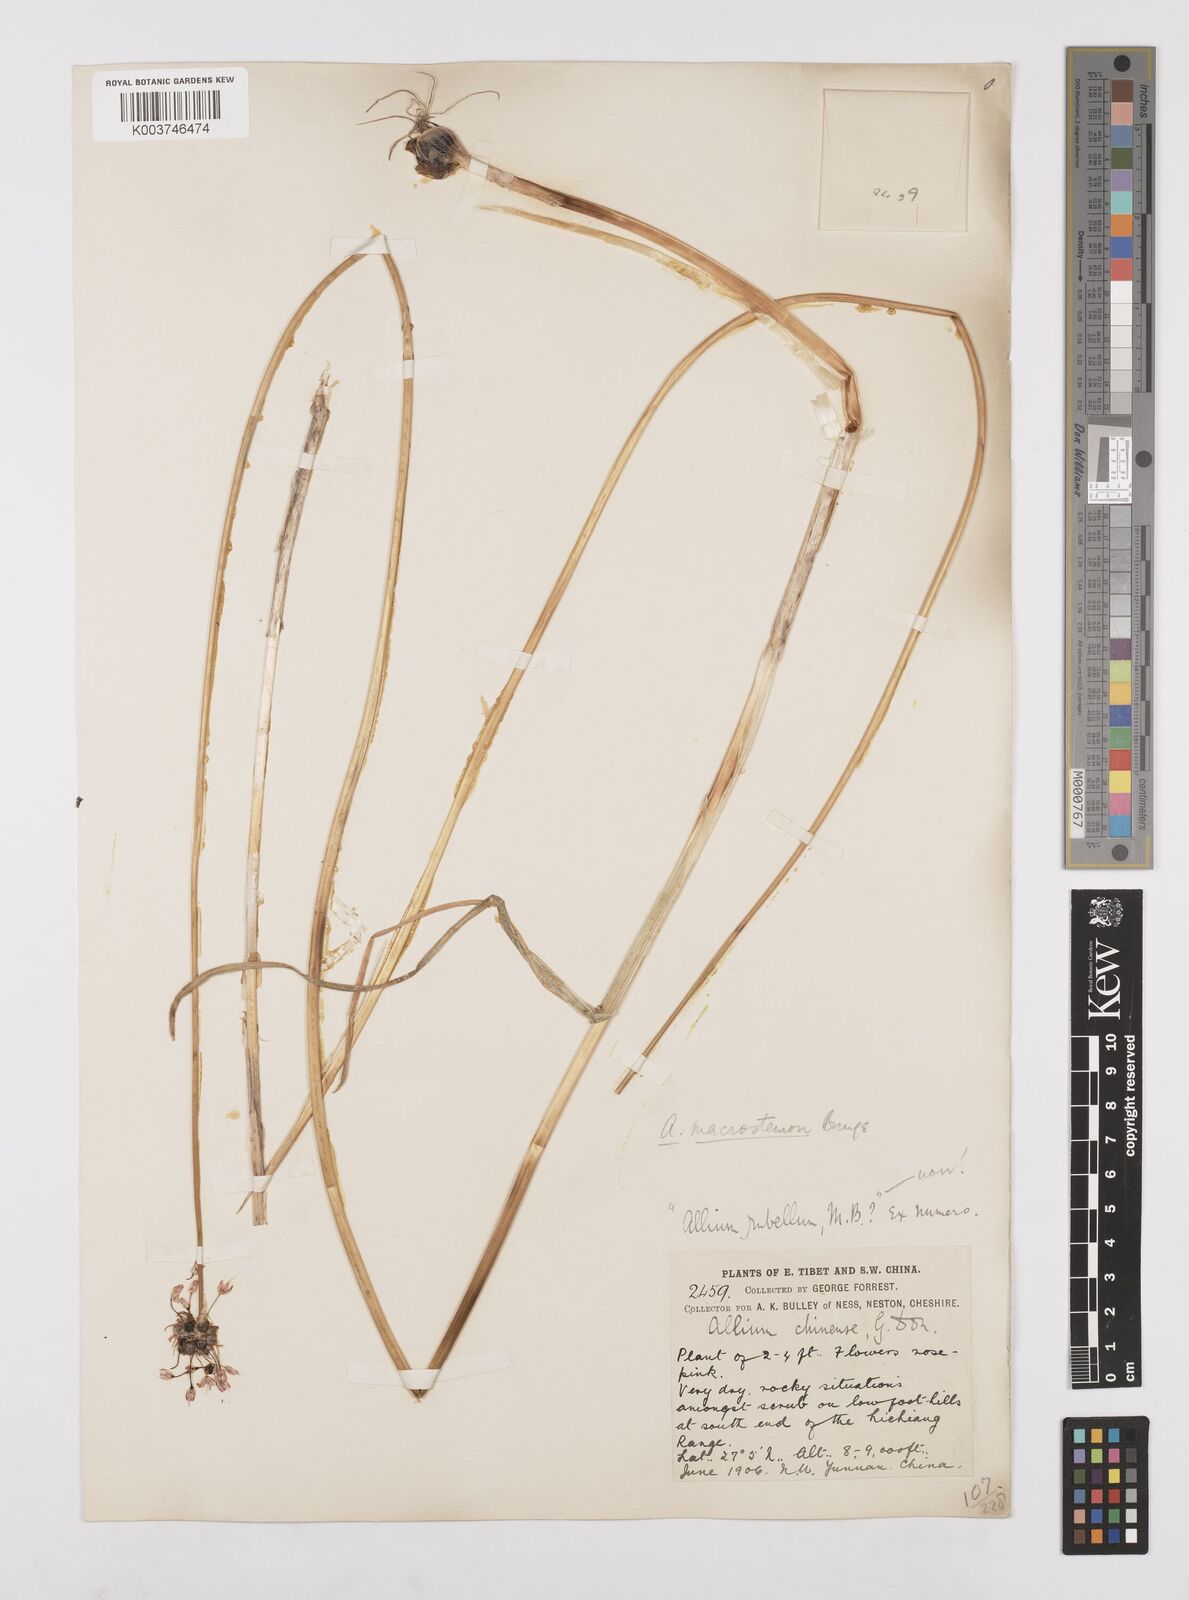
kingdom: Plantae
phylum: Tracheophyta
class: Liliopsida
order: Asparagales
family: Amaryllidaceae
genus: Allium
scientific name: Allium macrostemon
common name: Chinese garlic
